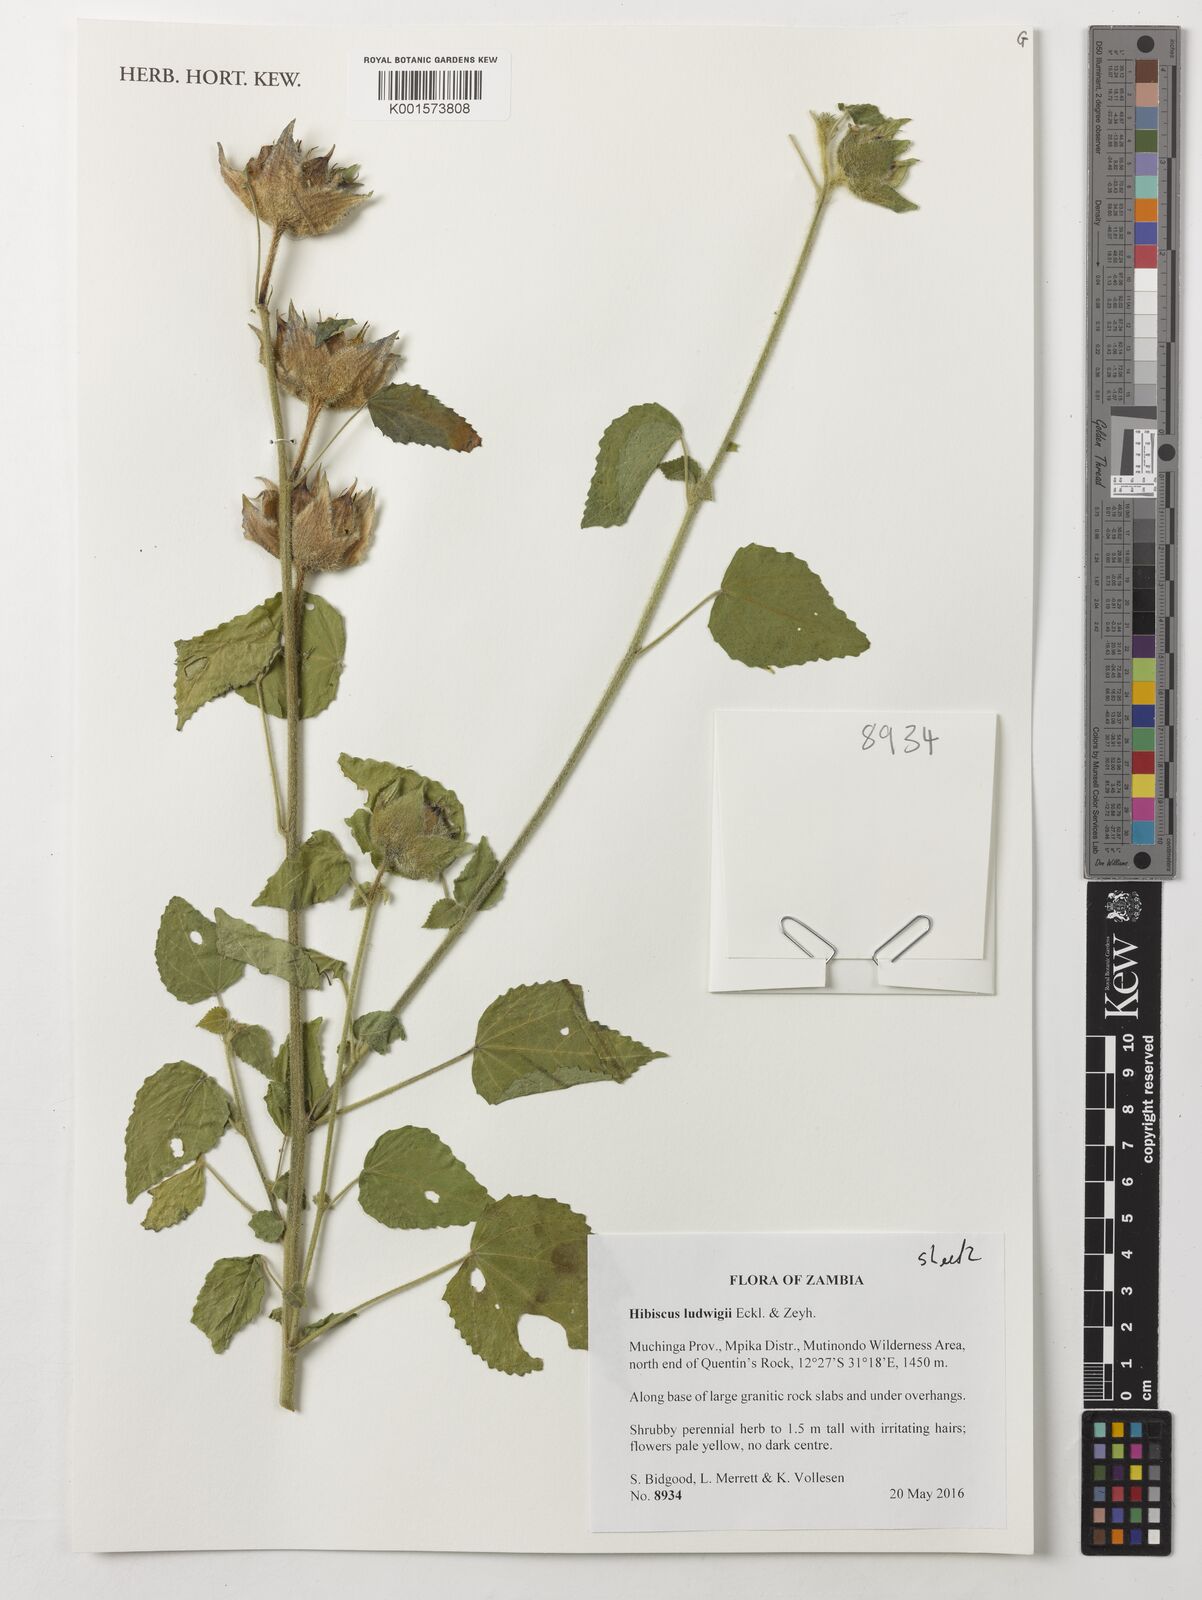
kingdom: Plantae
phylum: Tracheophyta
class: Magnoliopsida
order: Malvales
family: Malvaceae
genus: Hibiscus
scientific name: Hibiscus ludwigii
